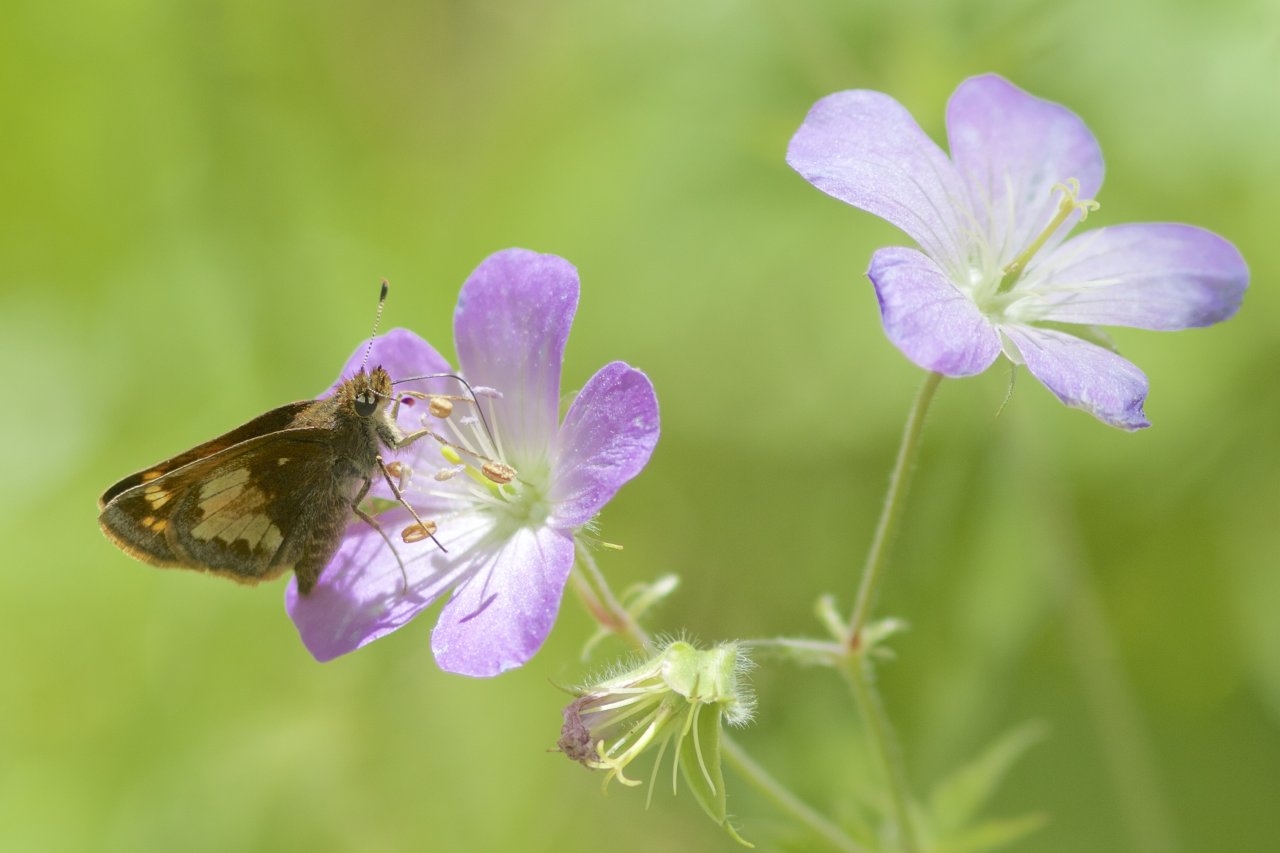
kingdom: Animalia
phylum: Arthropoda
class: Insecta
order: Lepidoptera
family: Hesperiidae
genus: Lon
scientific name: Lon hobomok
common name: Hobomok Skipper
